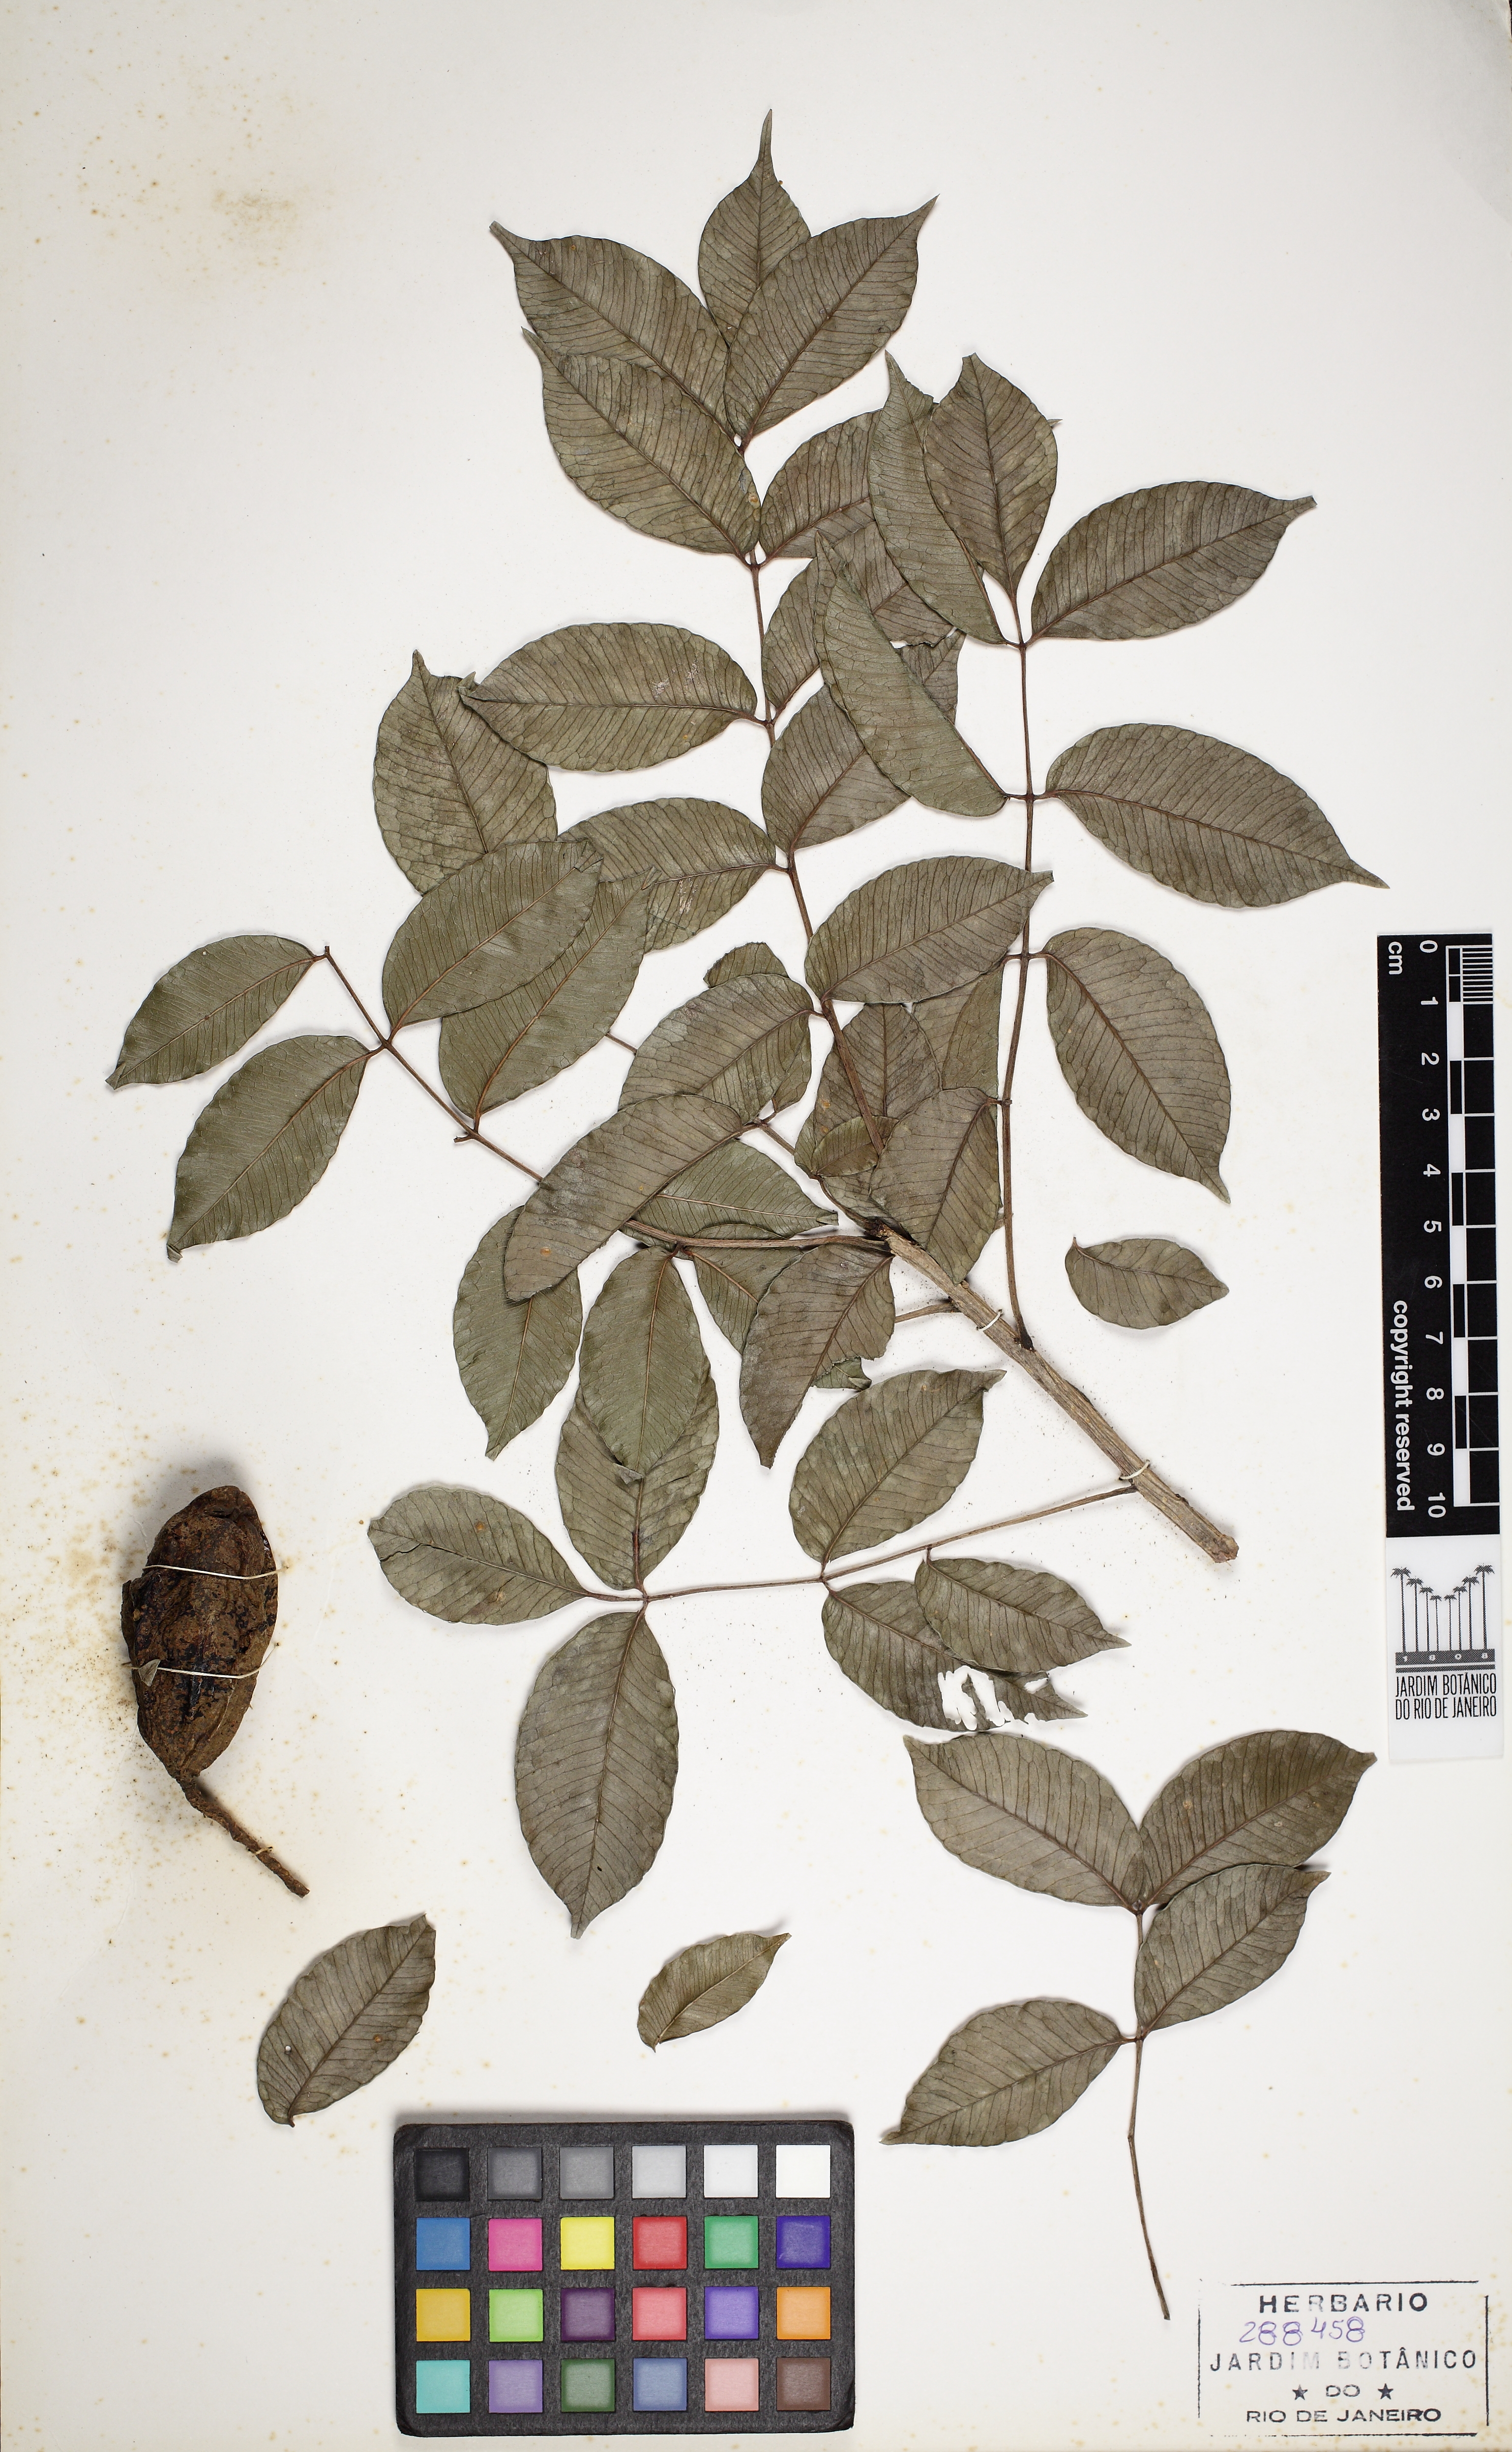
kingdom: Plantae
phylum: Tracheophyta
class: Magnoliopsida
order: Sapindales
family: Anacardiaceae
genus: Spondias
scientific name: Spondias venulosa
